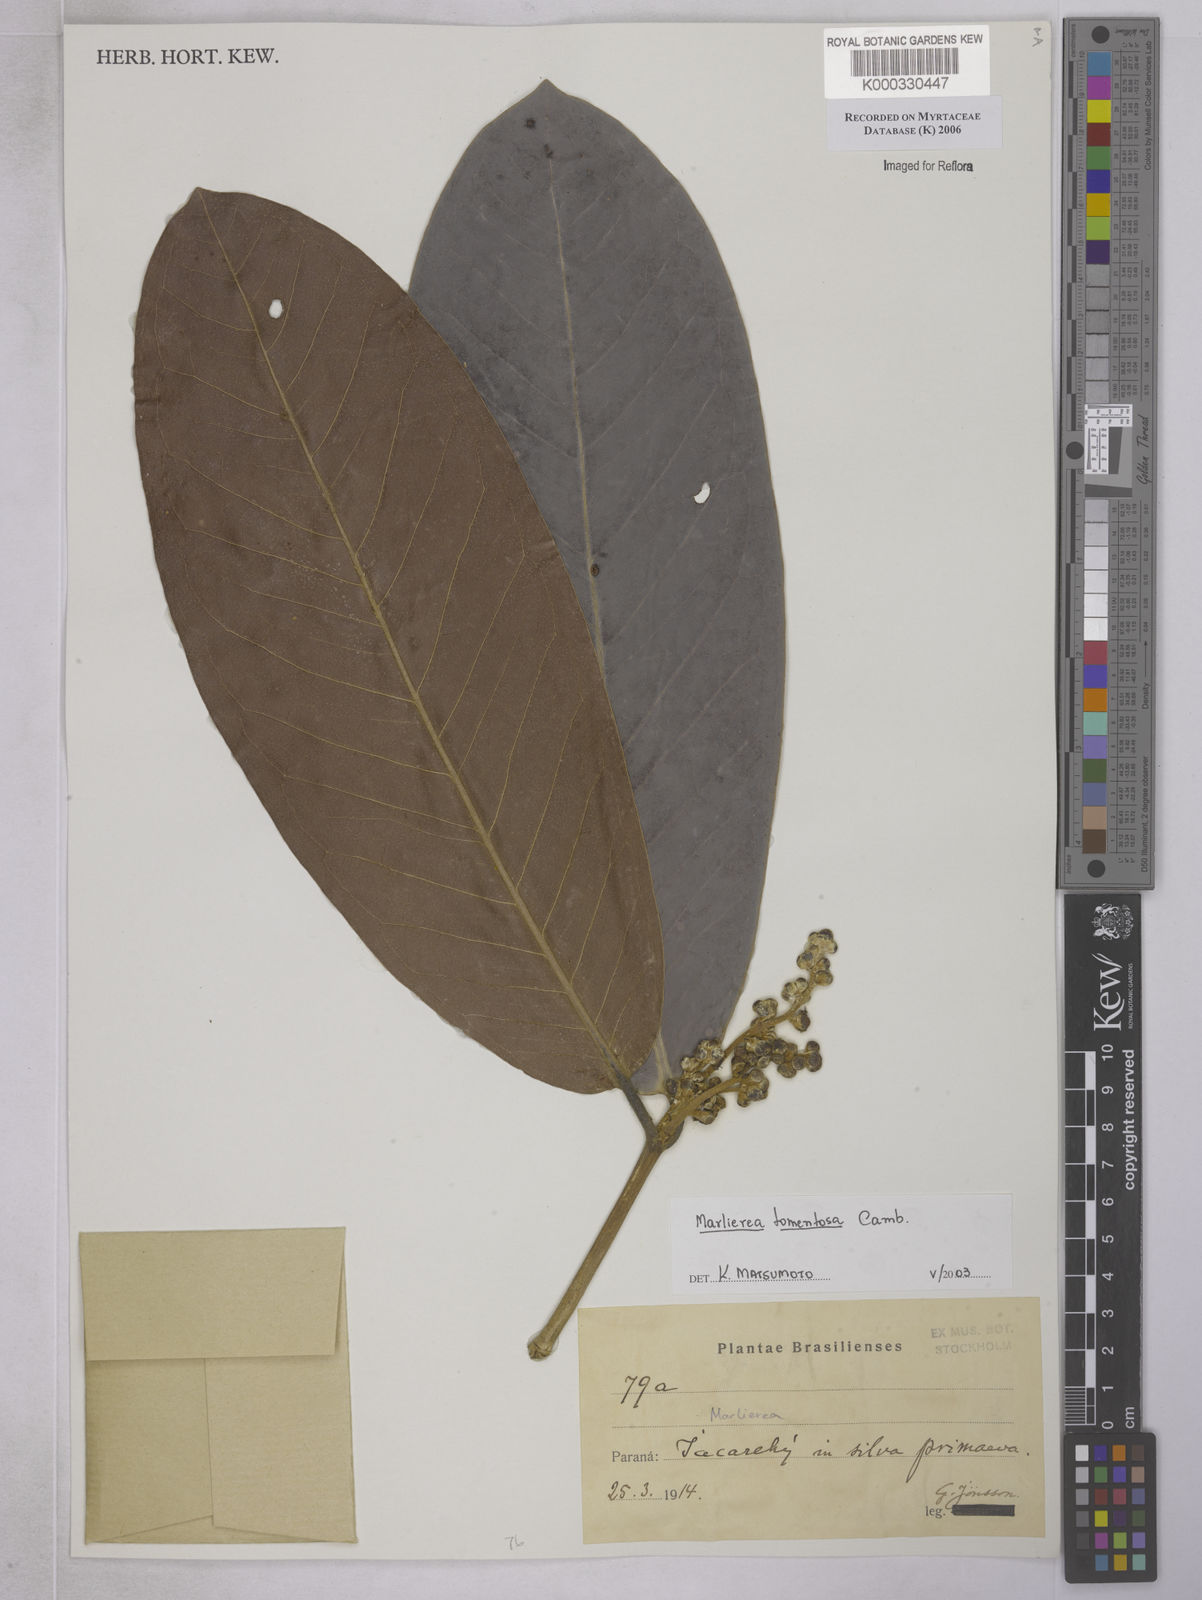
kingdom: Plantae
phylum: Tracheophyta
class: Magnoliopsida
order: Myrtales
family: Myrtaceae
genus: Myrcia
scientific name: Myrcia neotomentosa
